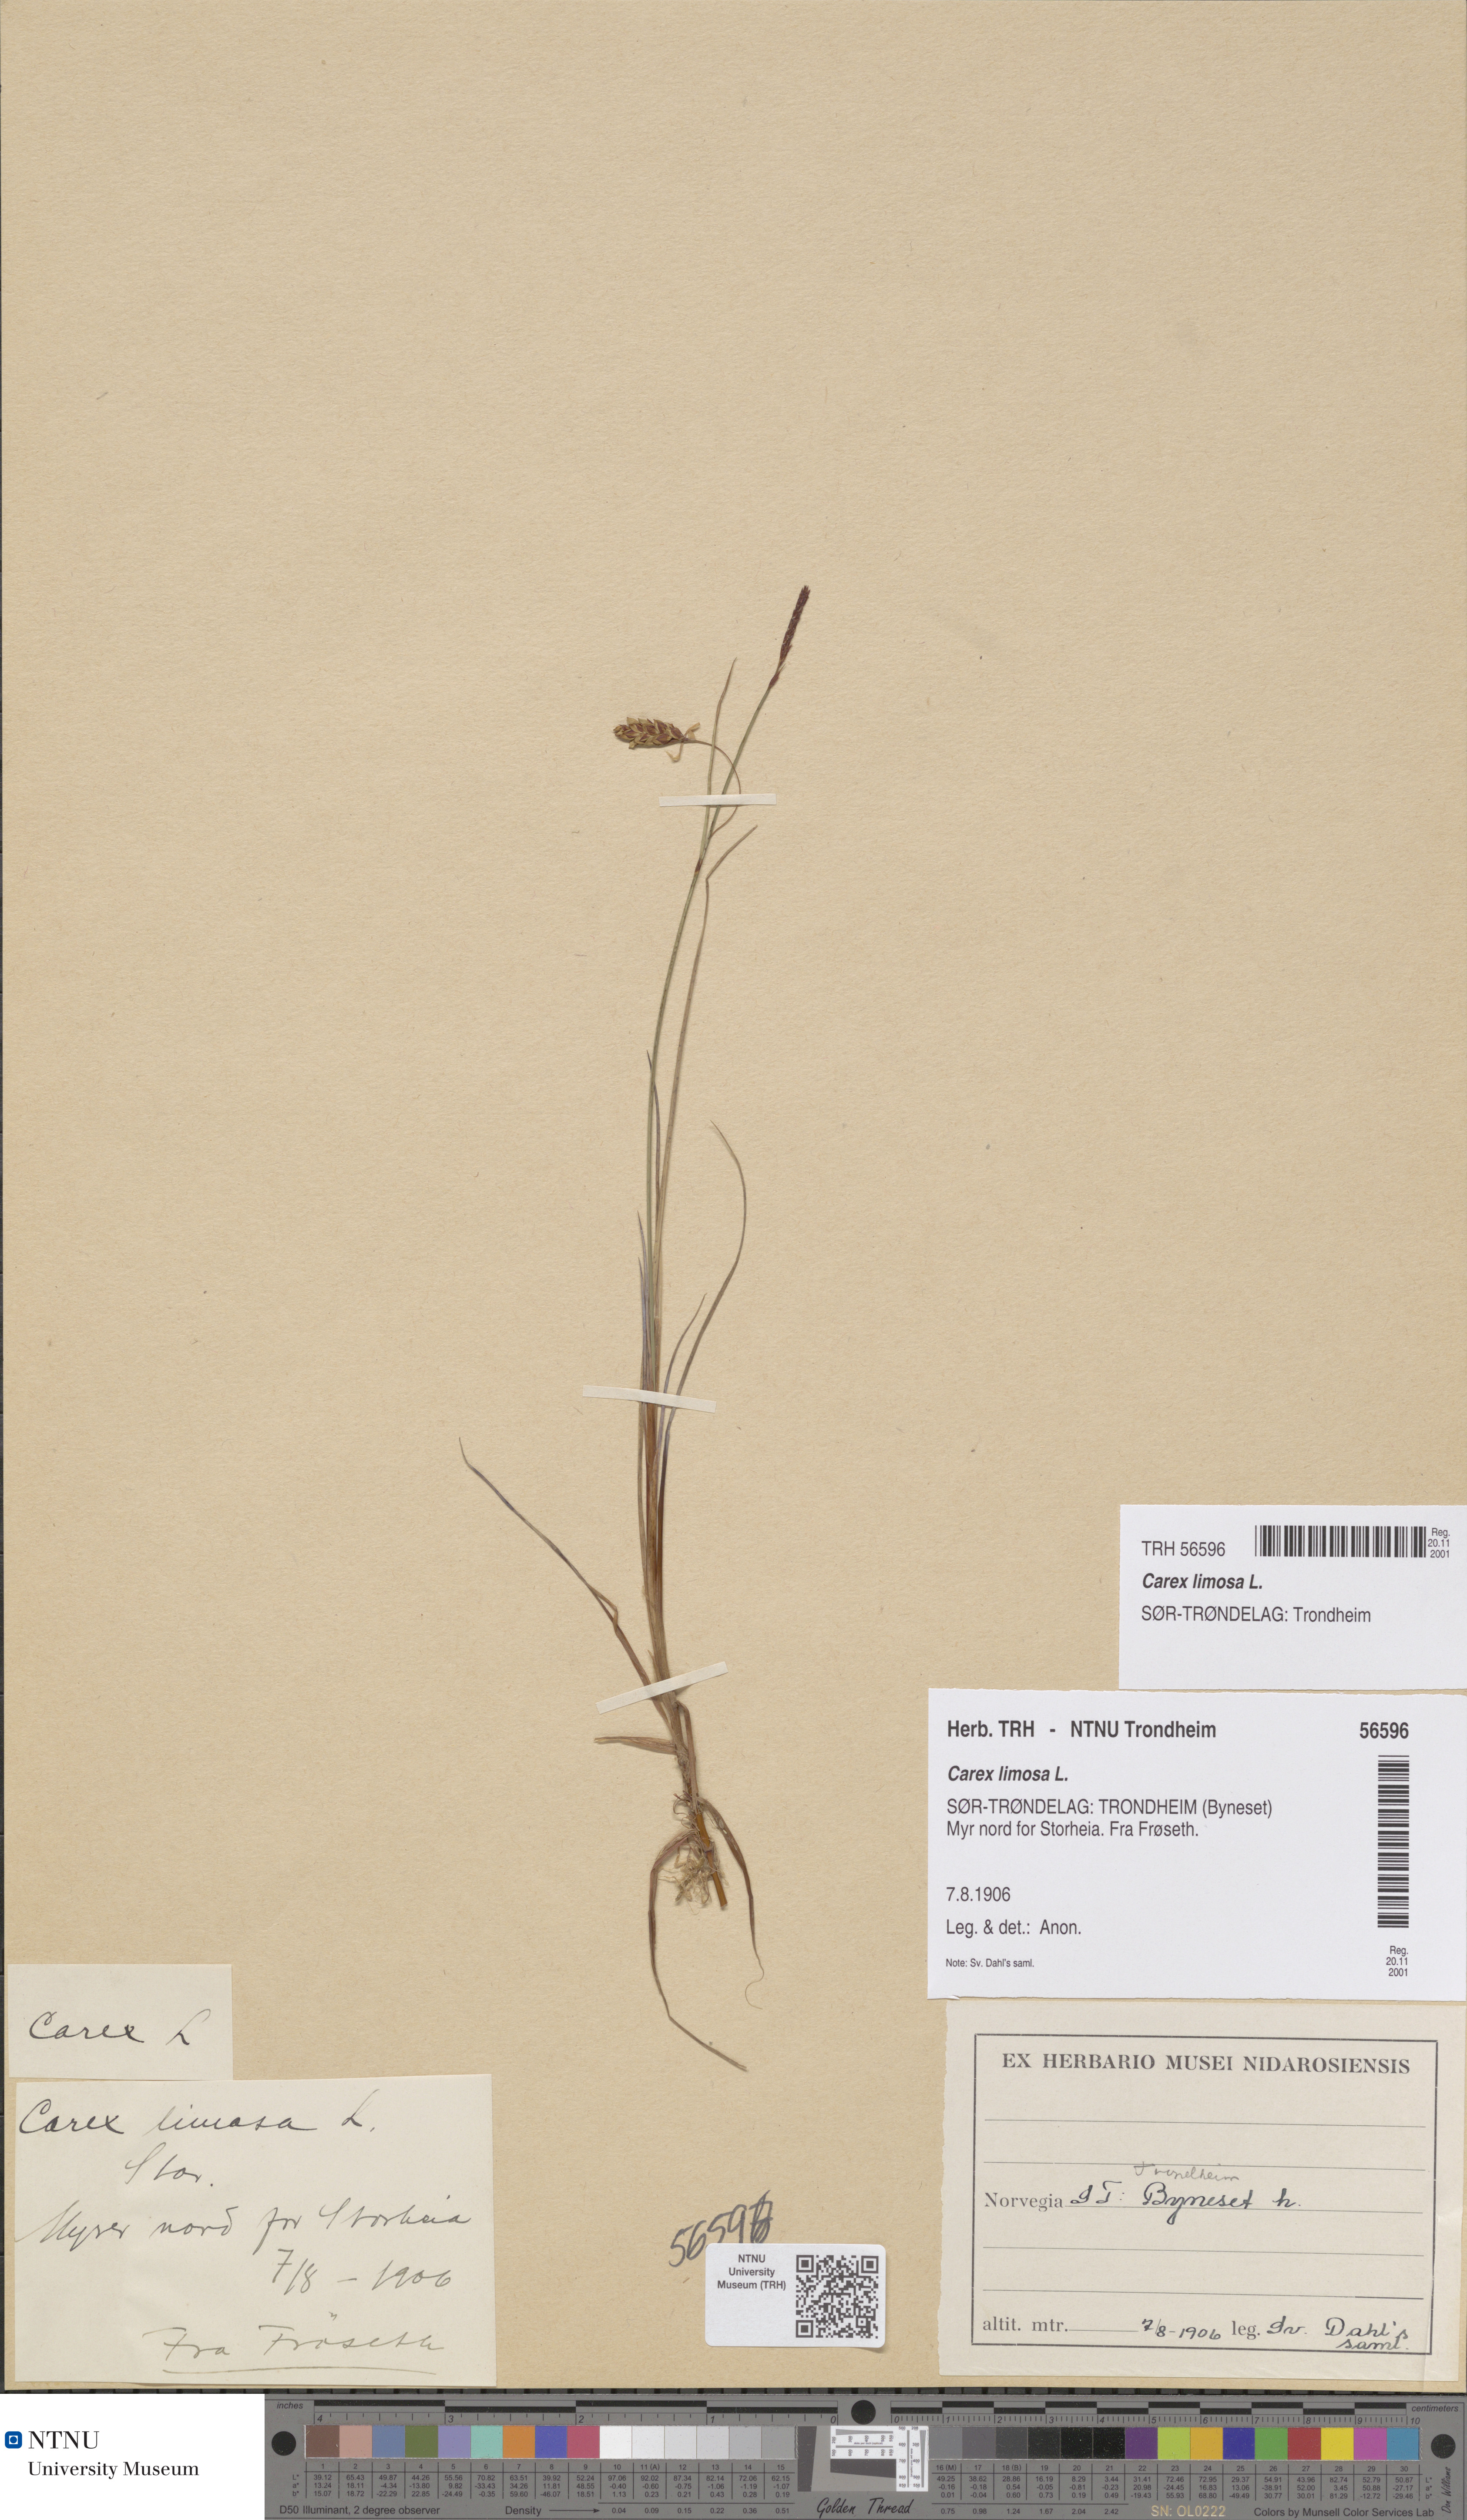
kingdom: Plantae
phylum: Tracheophyta
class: Liliopsida
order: Poales
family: Cyperaceae
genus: Carex
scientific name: Carex limosa
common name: Bog sedge
